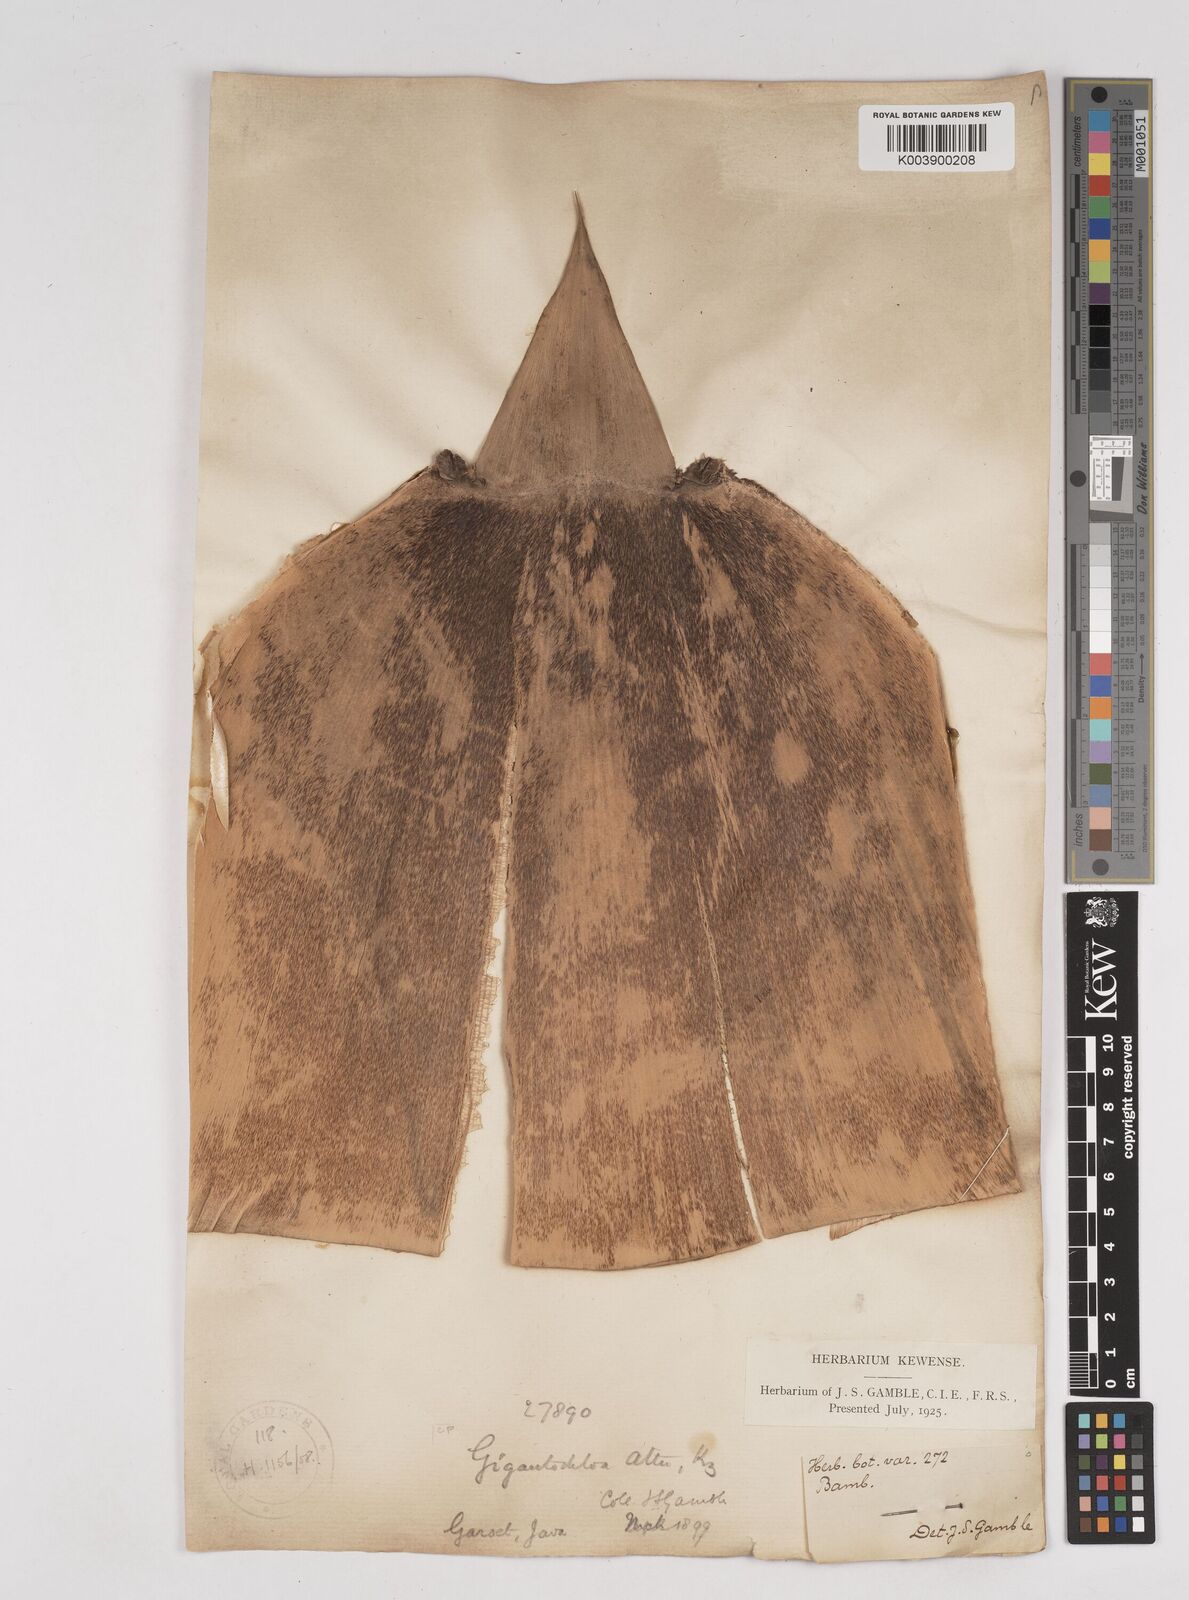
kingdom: Plantae
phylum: Tracheophyta
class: Liliopsida
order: Poales
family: Poaceae
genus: Gigantochloa
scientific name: Gigantochloa atter
